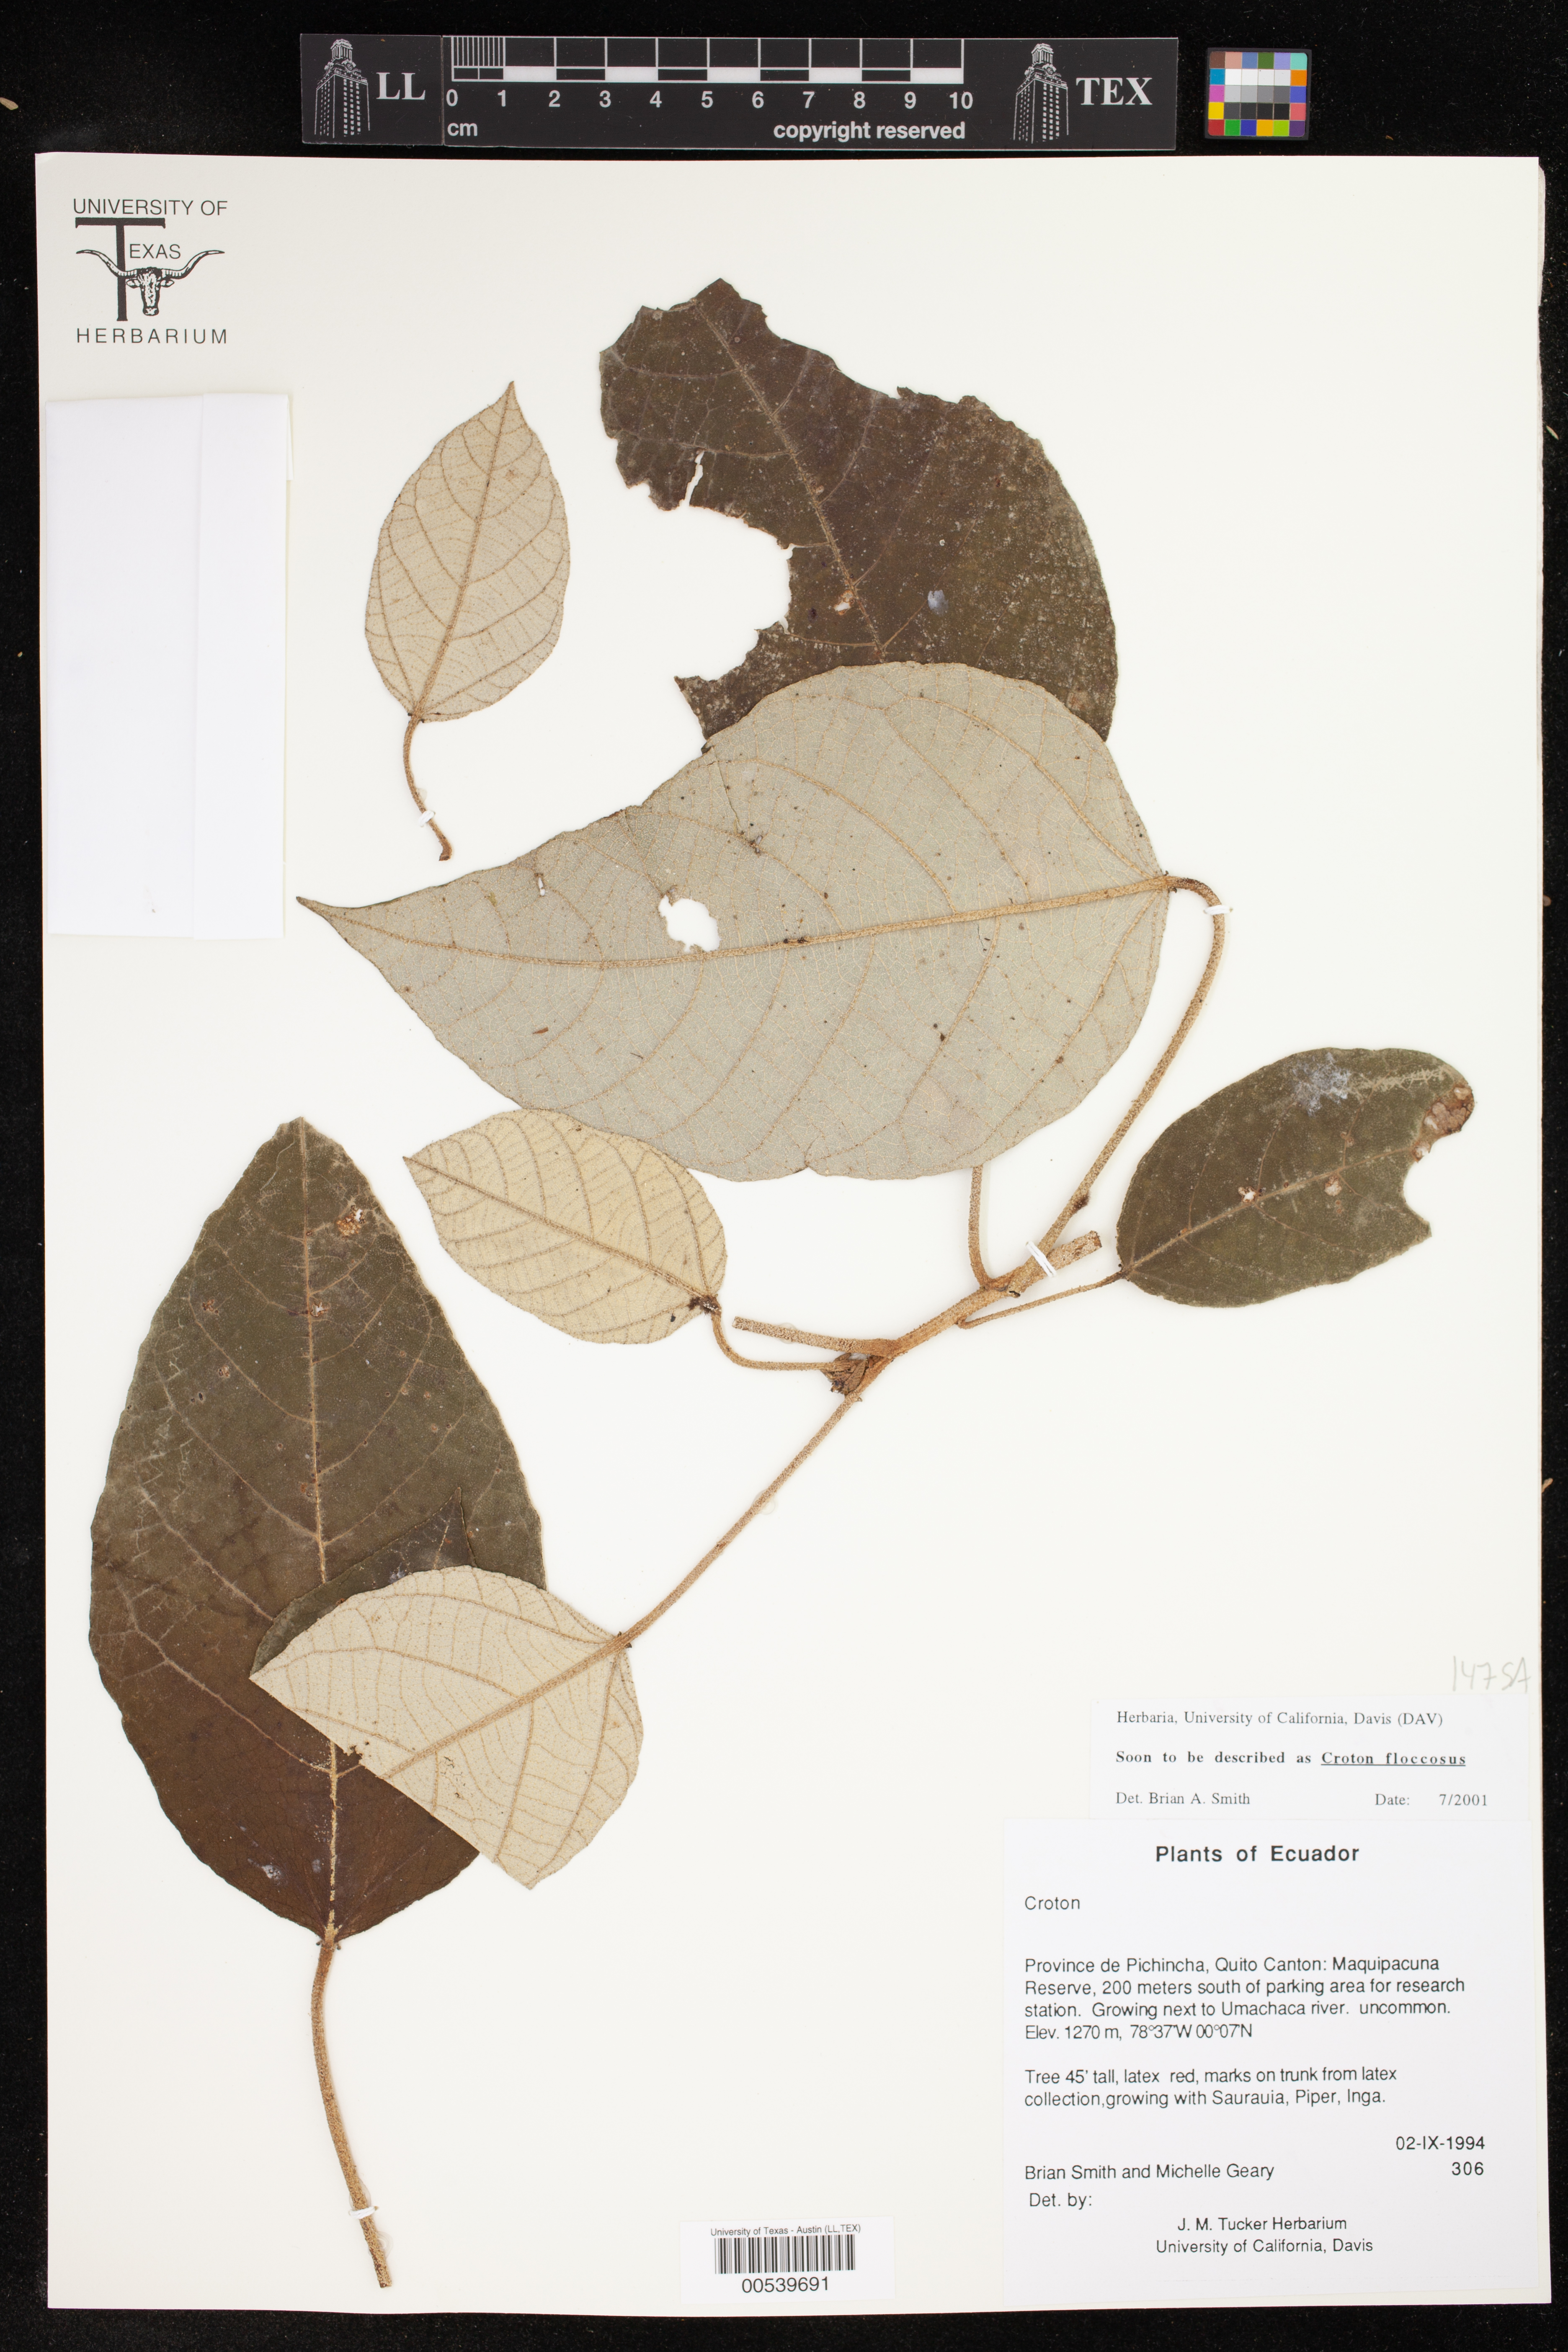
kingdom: Plantae
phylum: Tracheophyta
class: Magnoliopsida
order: Malpighiales
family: Euphorbiaceae
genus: Croton
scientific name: Croton floccosus
